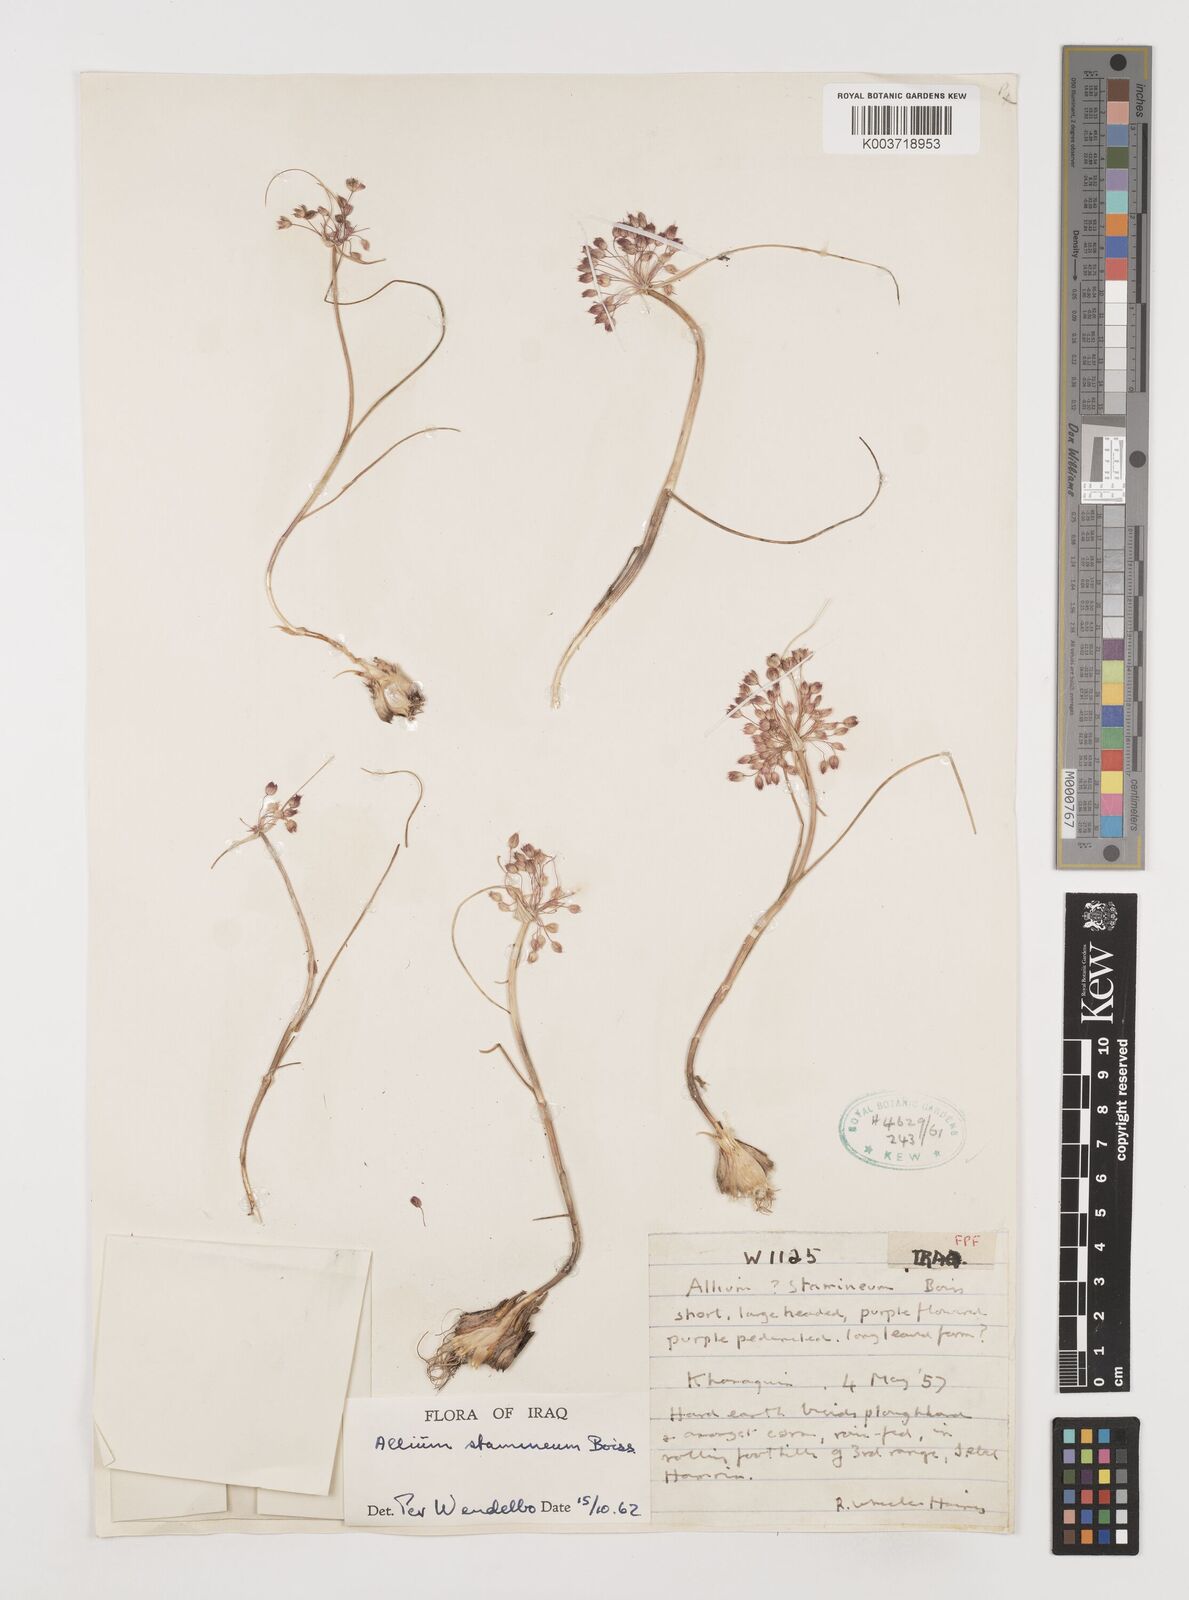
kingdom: Plantae
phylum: Tracheophyta
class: Liliopsida
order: Asparagales
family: Amaryllidaceae
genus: Allium
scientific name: Allium stamineum
